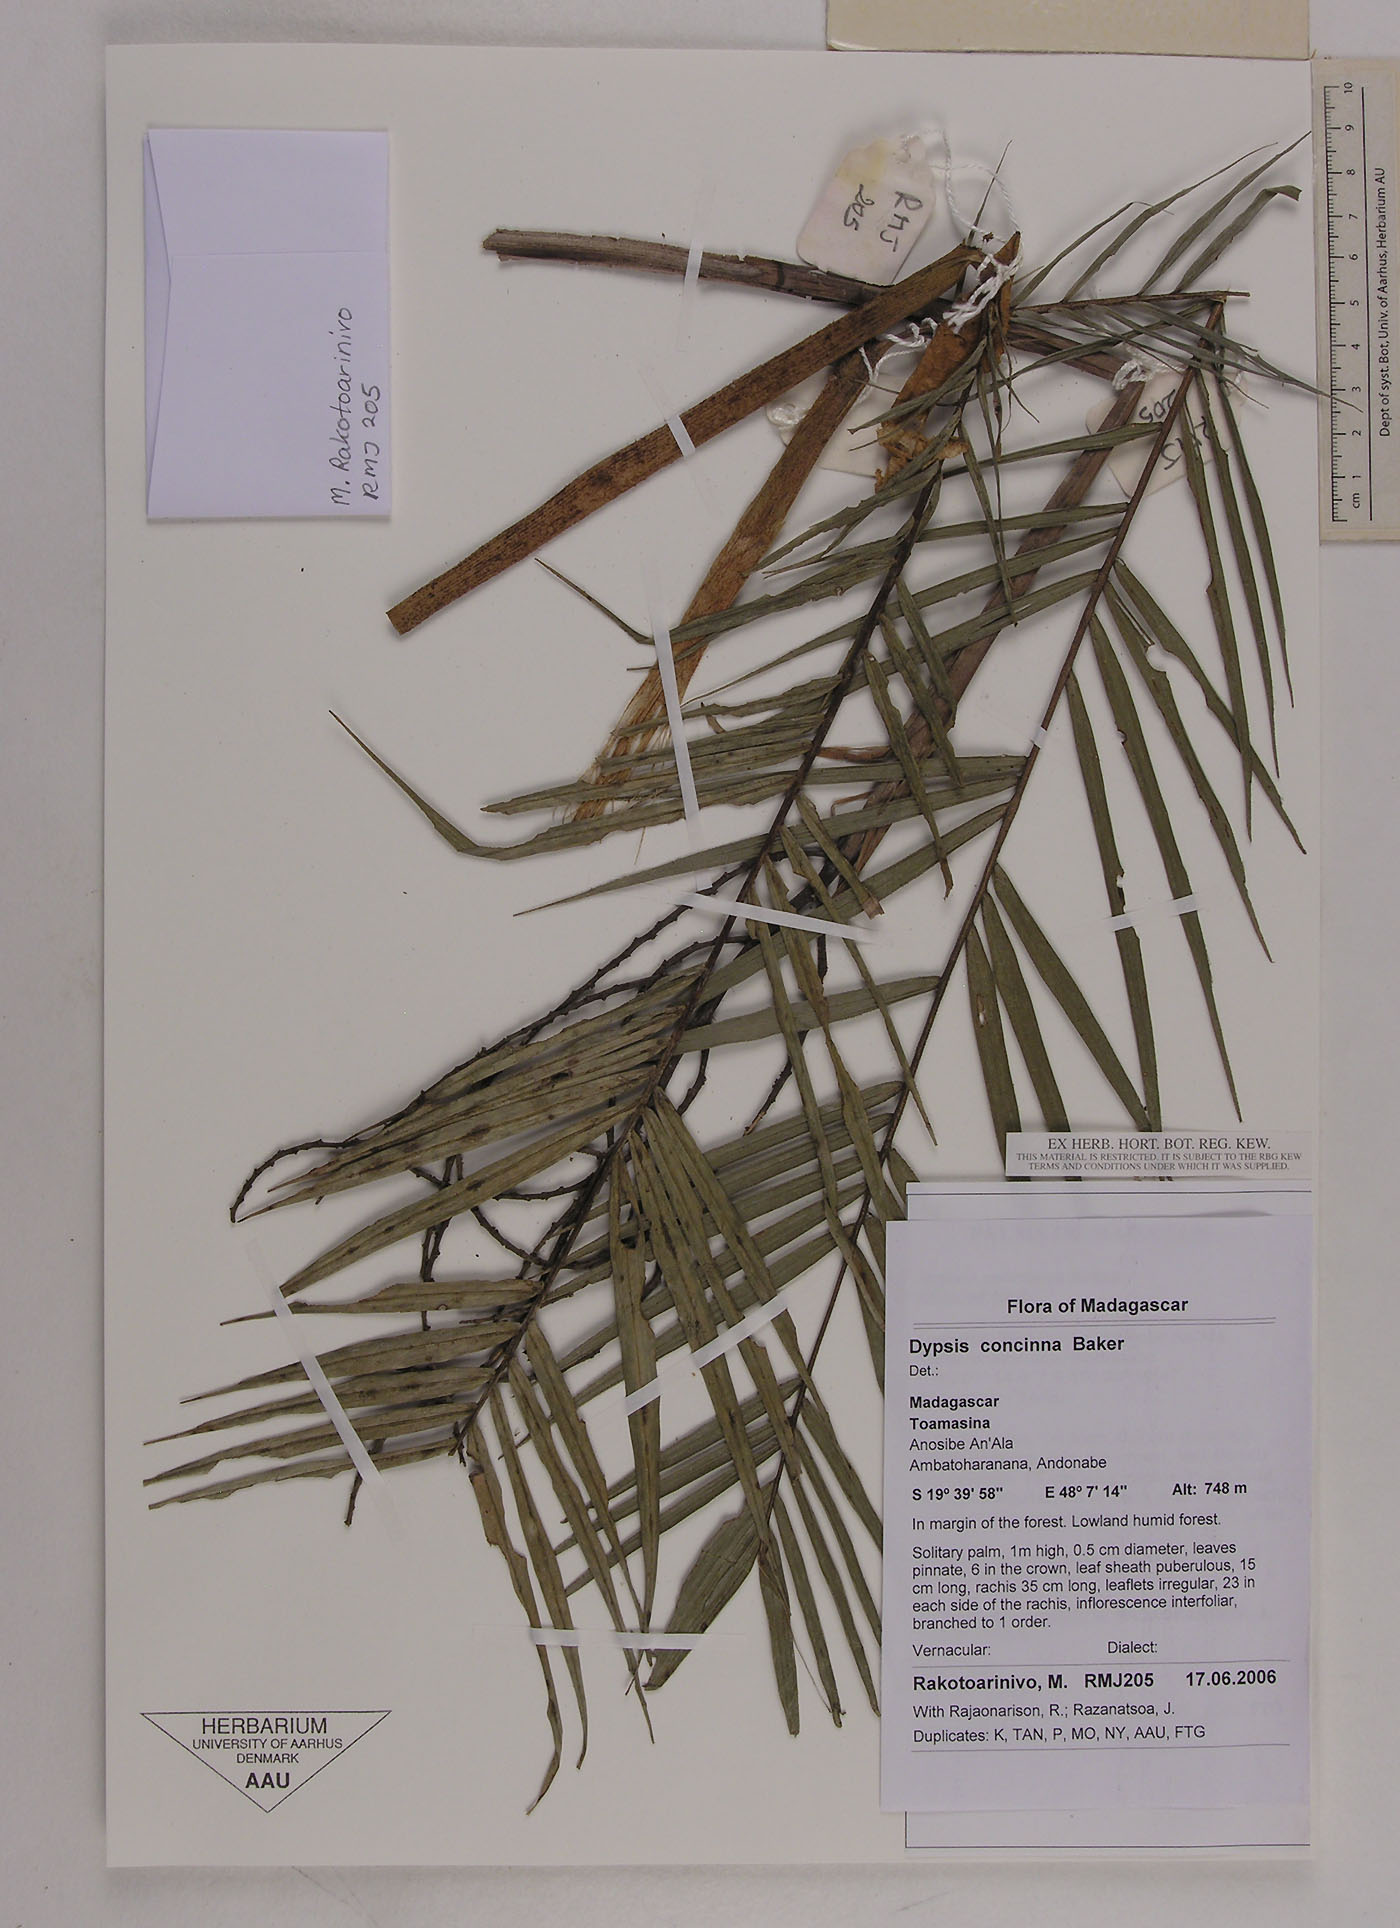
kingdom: Plantae
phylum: Tracheophyta
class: Liliopsida
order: Arecales
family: Arecaceae
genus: Dypsis
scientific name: Dypsis concinna
